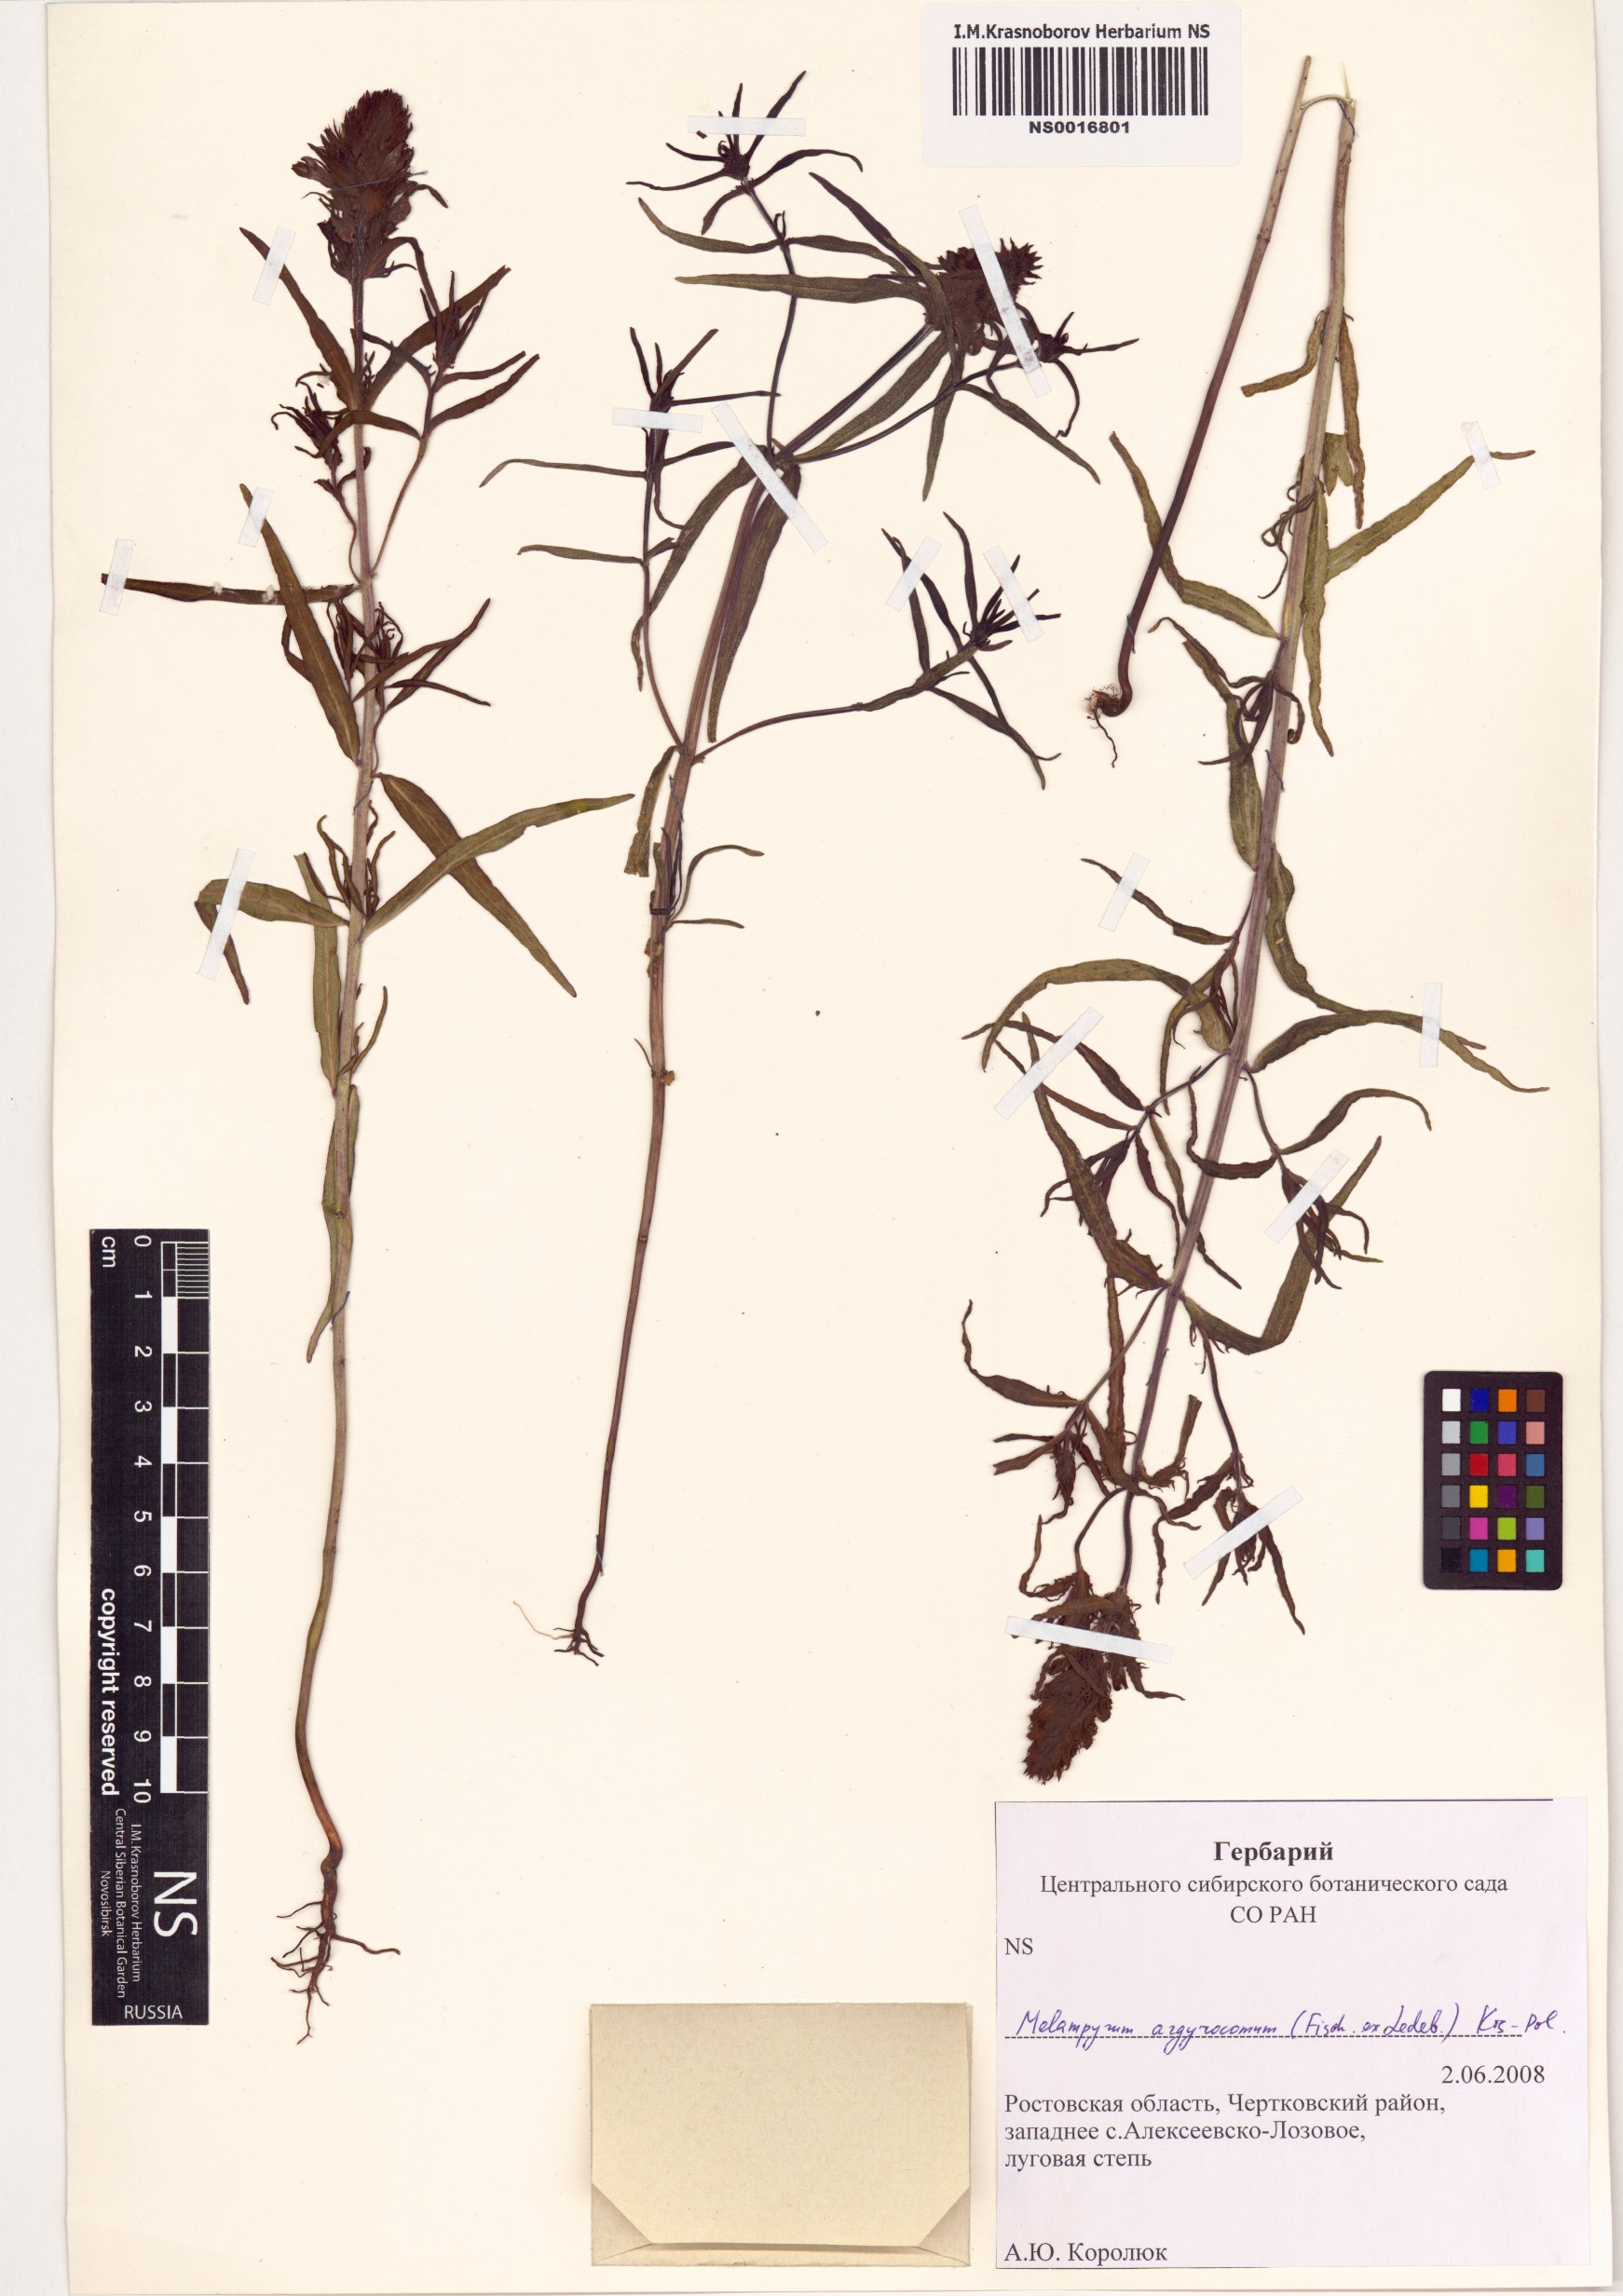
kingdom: Plantae
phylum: Tracheophyta
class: Magnoliopsida
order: Lamiales
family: Orobanchaceae
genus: Melampyrum
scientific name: Melampyrum arvense
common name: Field cow-wheat
